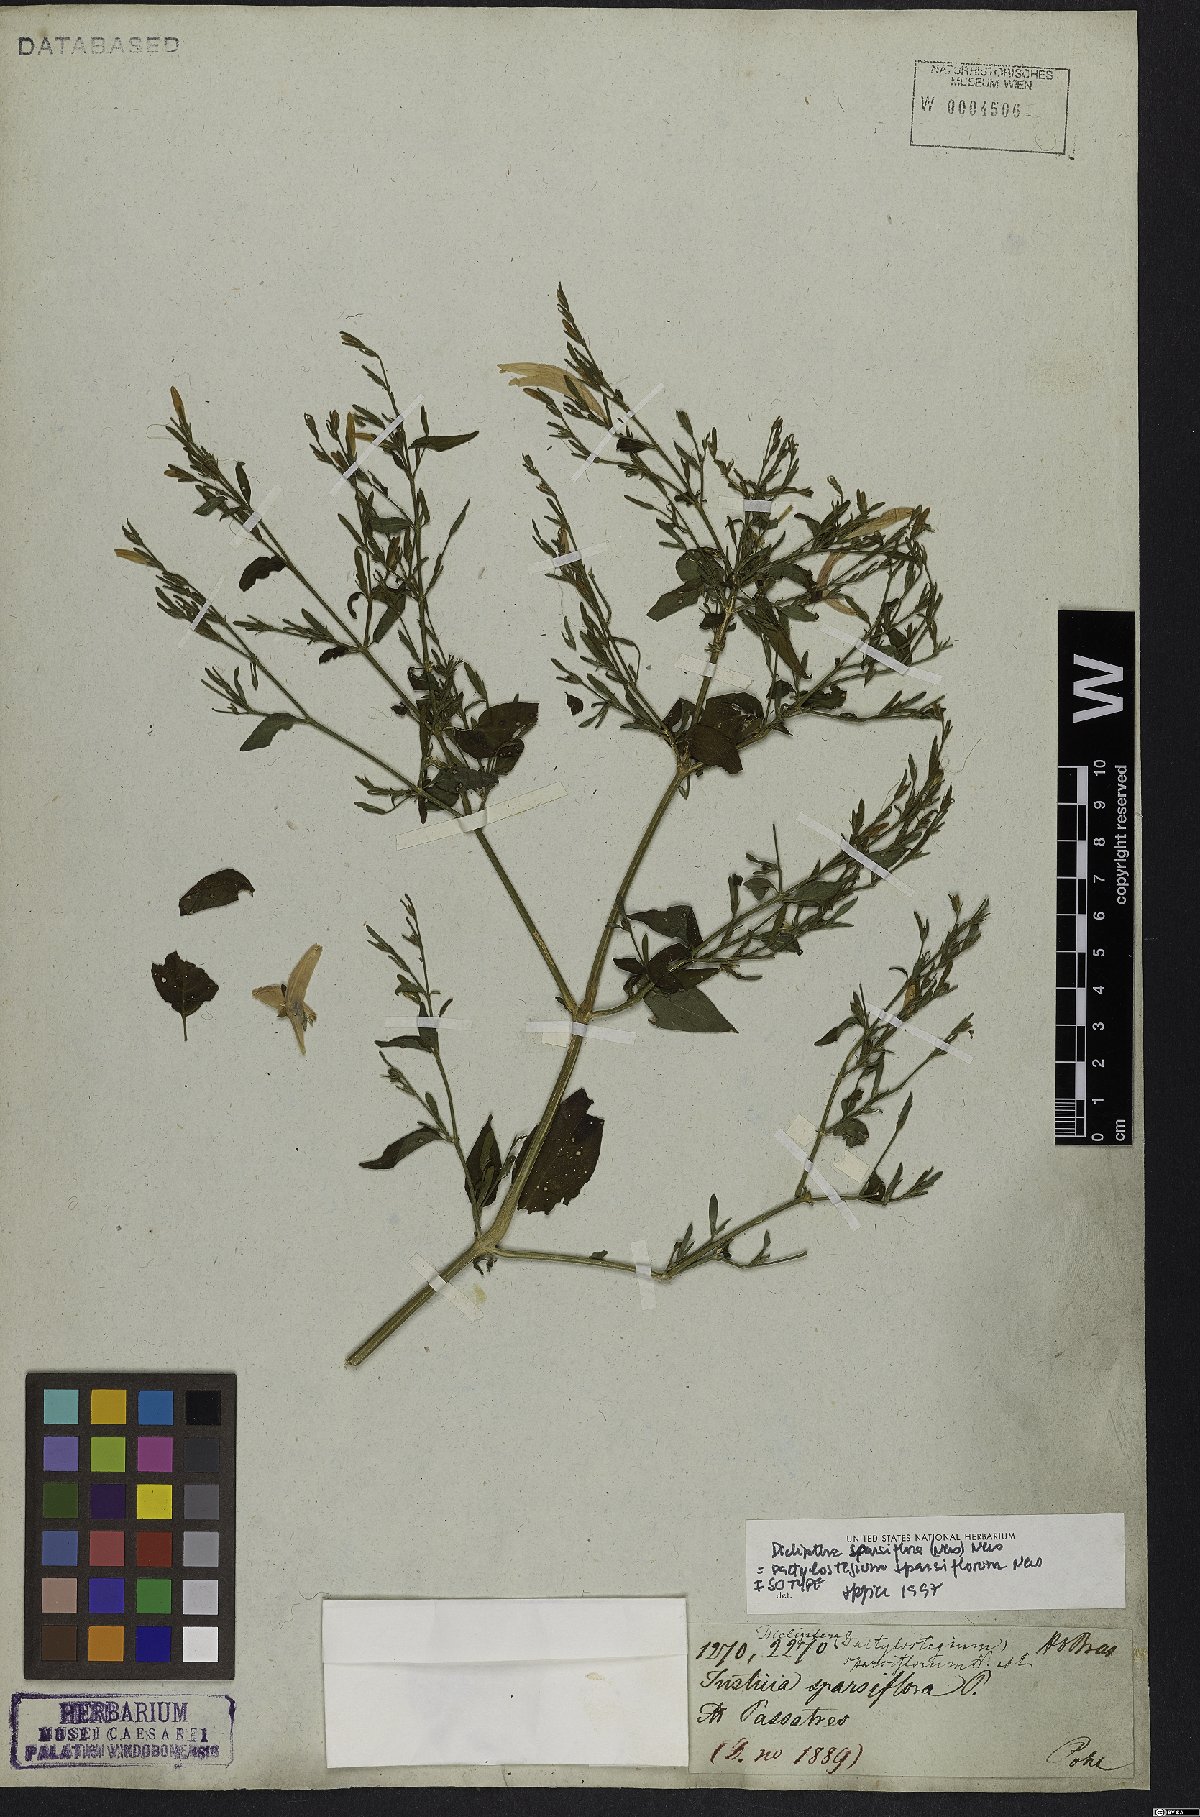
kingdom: Plantae
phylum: Tracheophyta
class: Magnoliopsida
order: Lamiales
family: Acanthaceae
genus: Dicliptera
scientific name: Dicliptera sparsiflora
